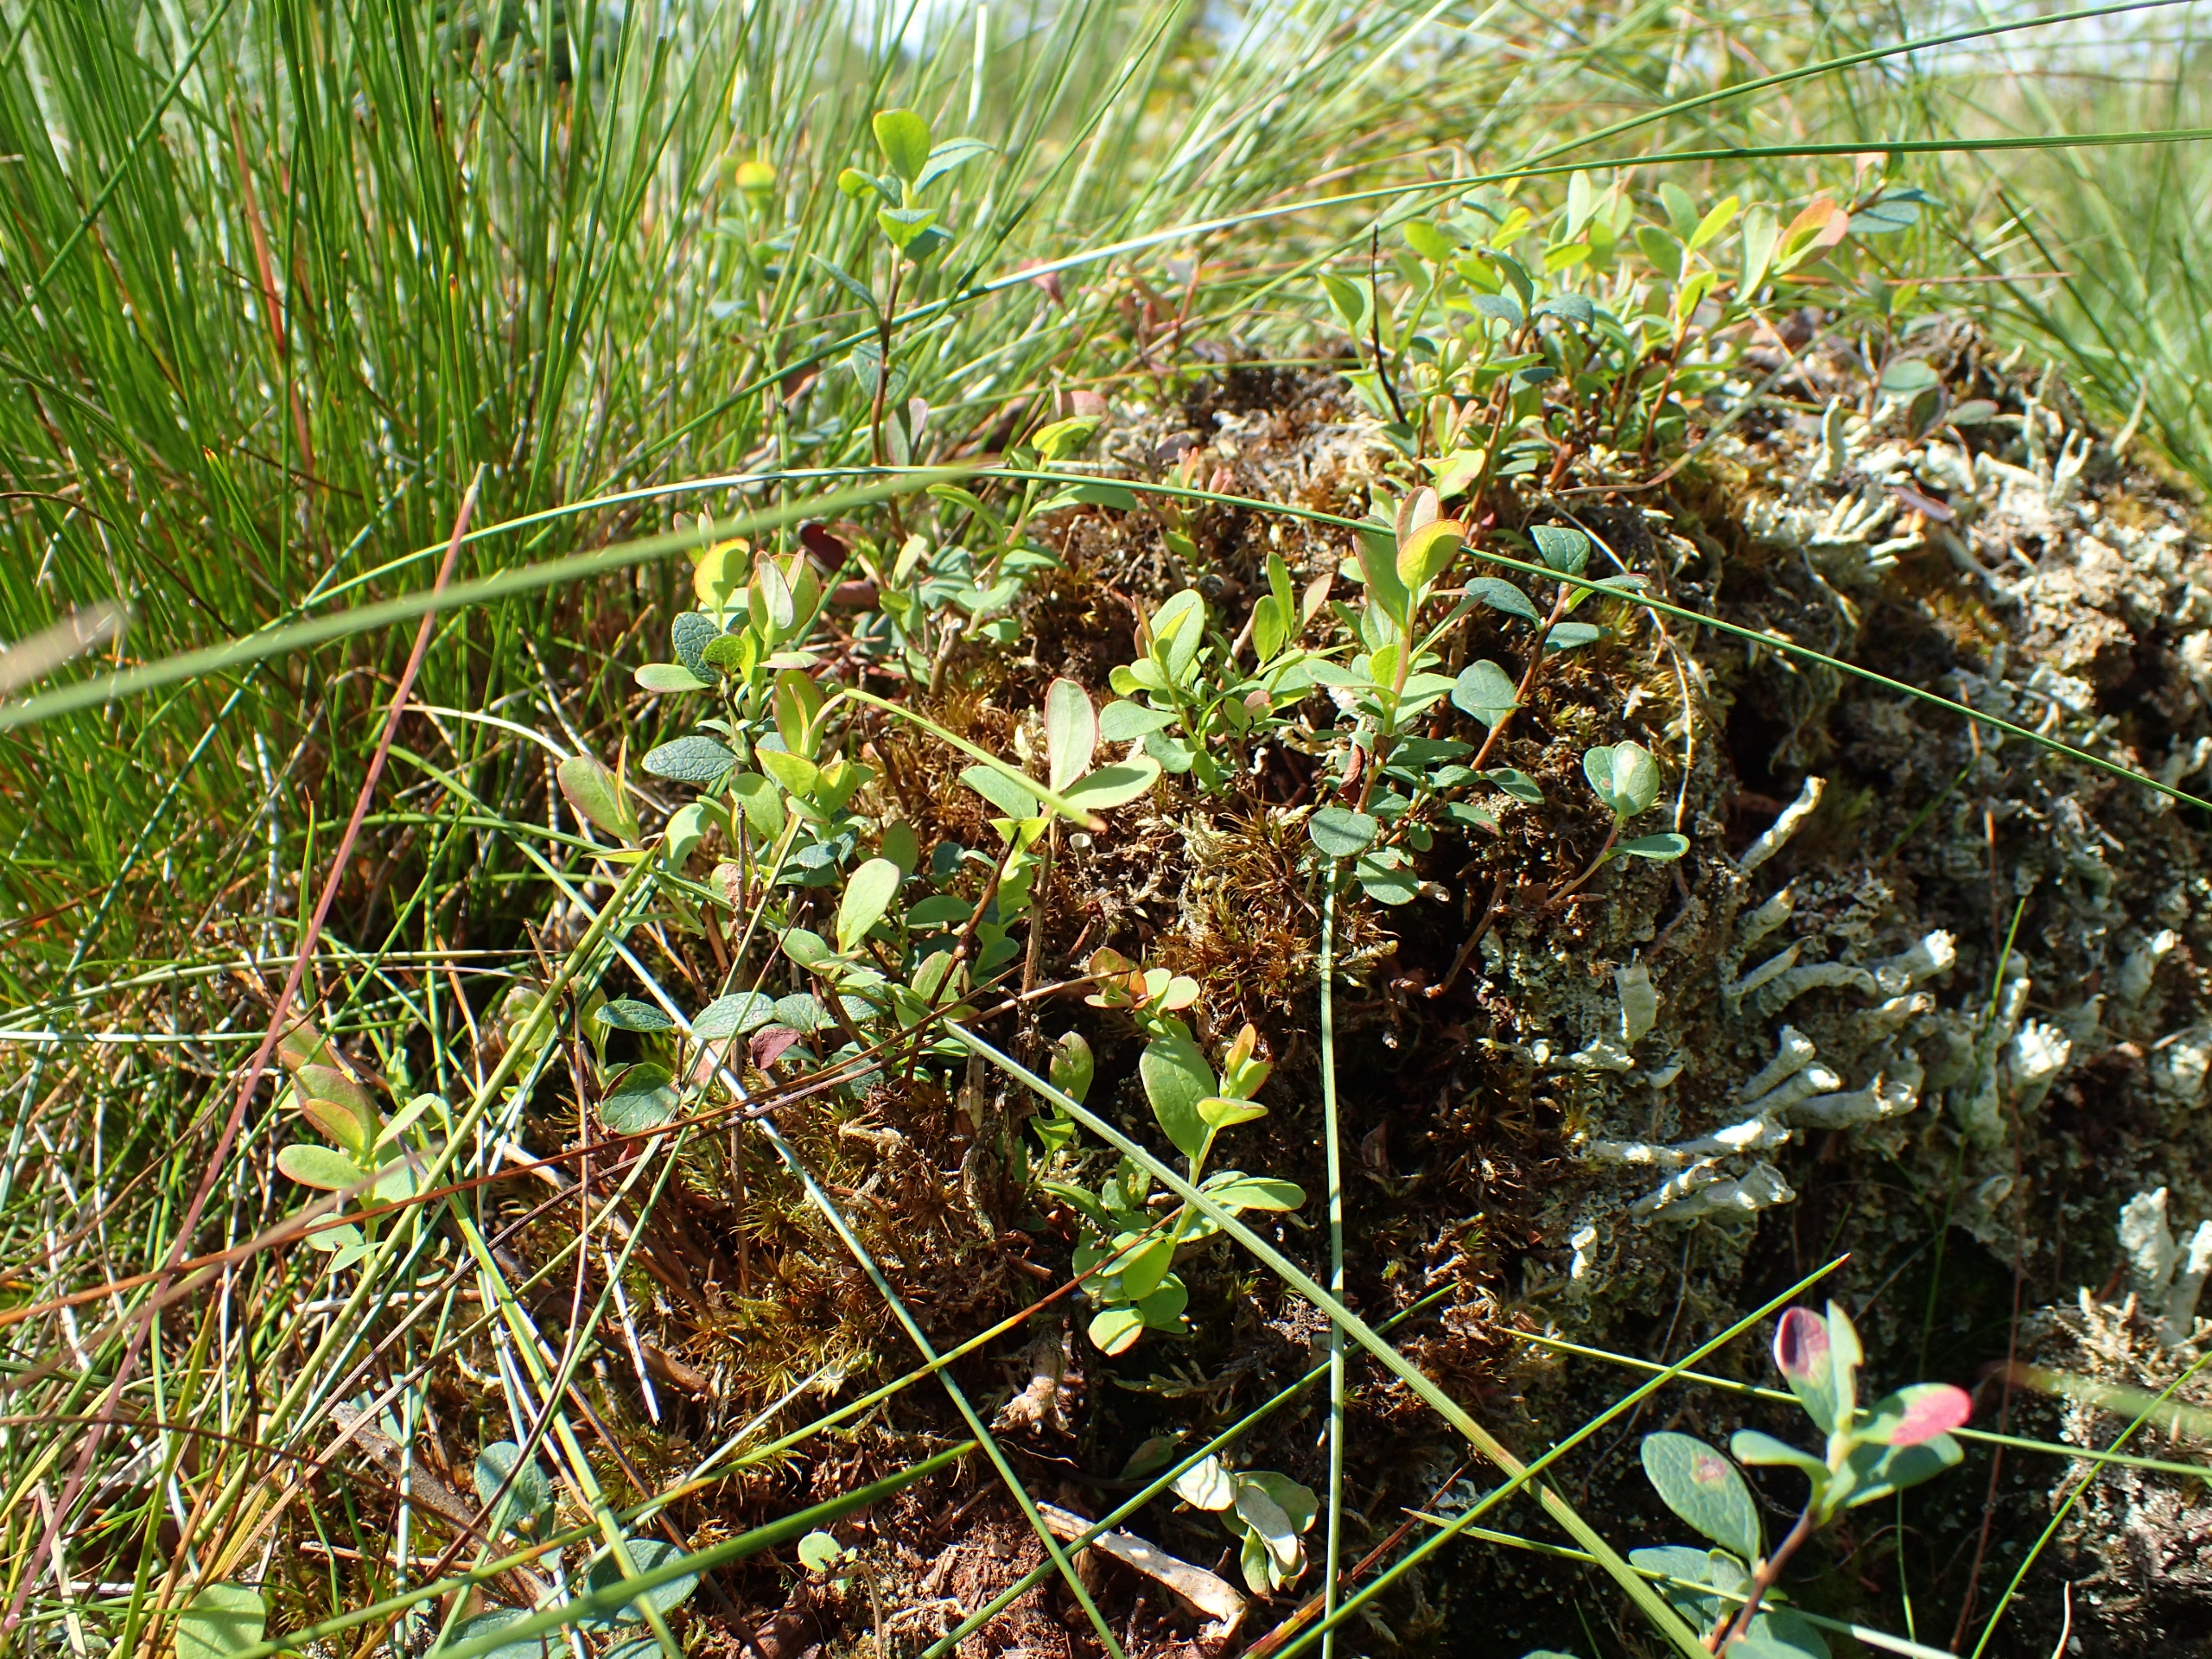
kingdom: Plantae
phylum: Tracheophyta
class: Magnoliopsida
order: Ericales
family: Ericaceae
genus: Vaccinium
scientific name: Vaccinium uliginosum
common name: Mose-bølle
